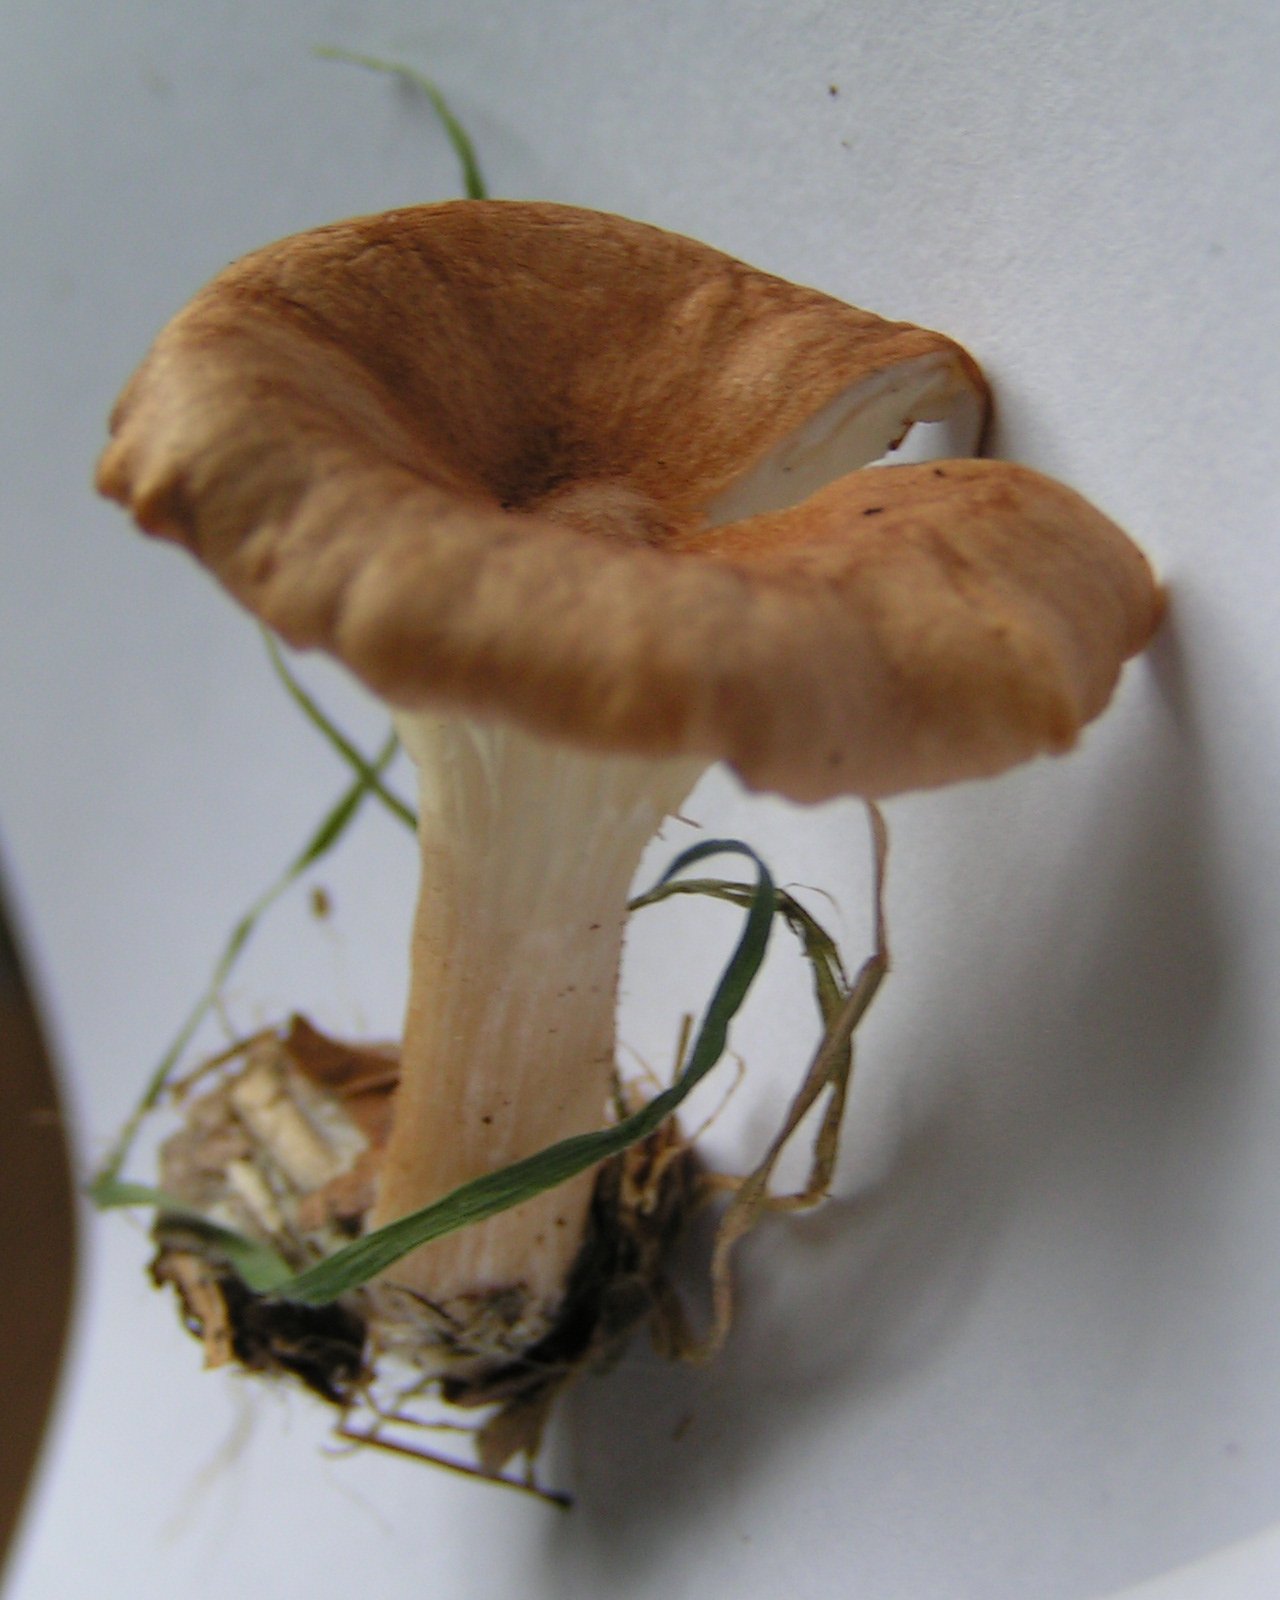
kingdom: Fungi
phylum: Basidiomycota
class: Agaricomycetes
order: Agaricales
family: Tricholomataceae
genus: Infundibulicybe
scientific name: Infundibulicybe squamulosa
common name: småskællet tragthat
